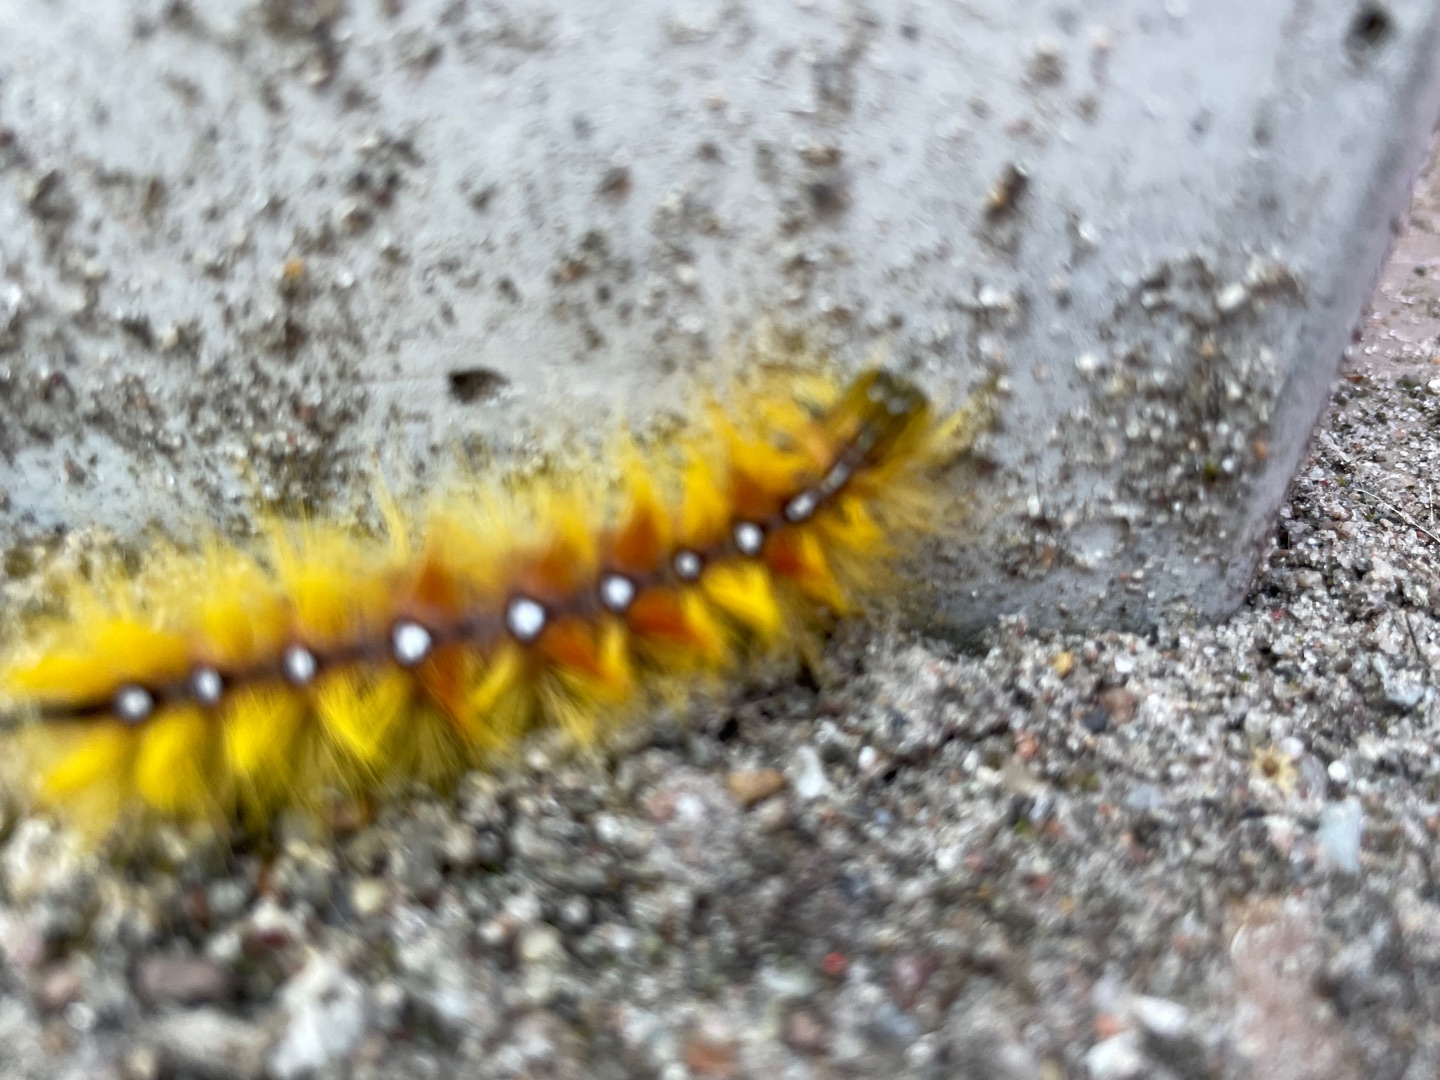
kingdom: Animalia
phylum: Arthropoda
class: Insecta
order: Lepidoptera
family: Noctuidae
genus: Acronicta
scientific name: Acronicta aceris
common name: Ahornugle
